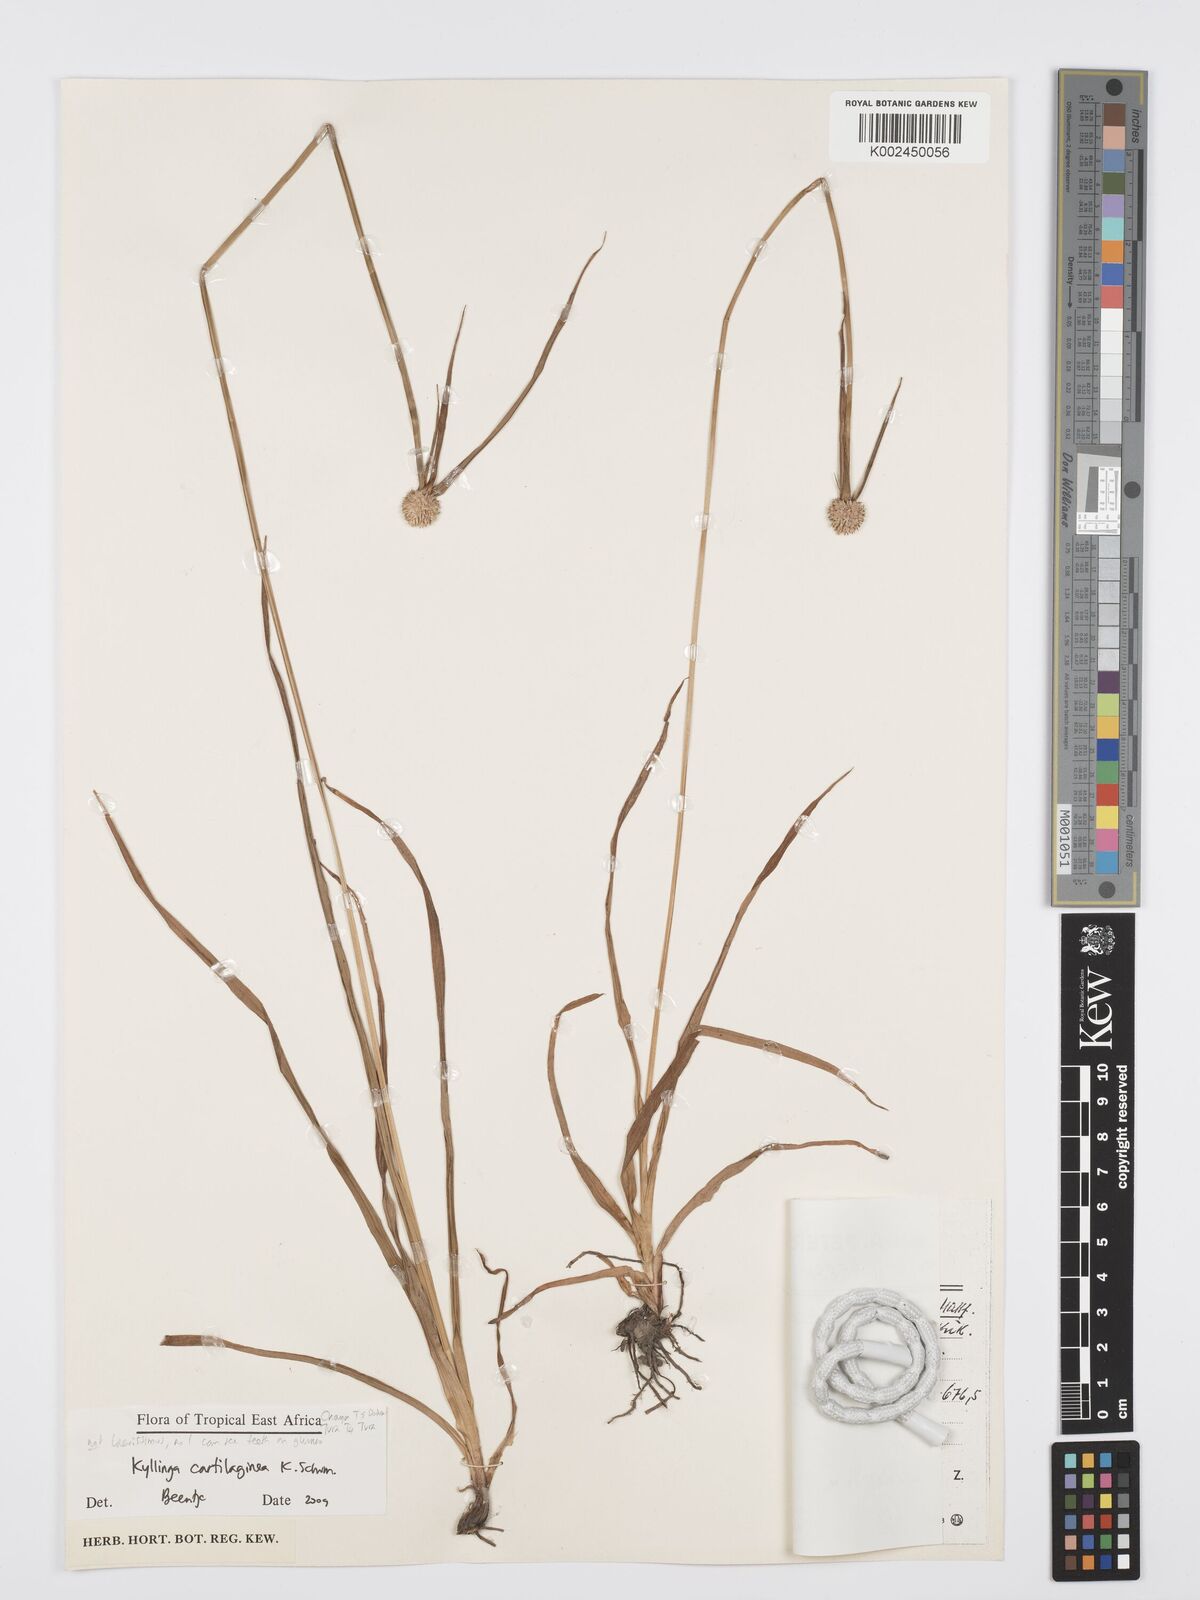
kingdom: Plantae
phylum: Tracheophyta
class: Liliopsida
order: Poales
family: Cyperaceae
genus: Cyperus
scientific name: Cyperus cartilagineus
